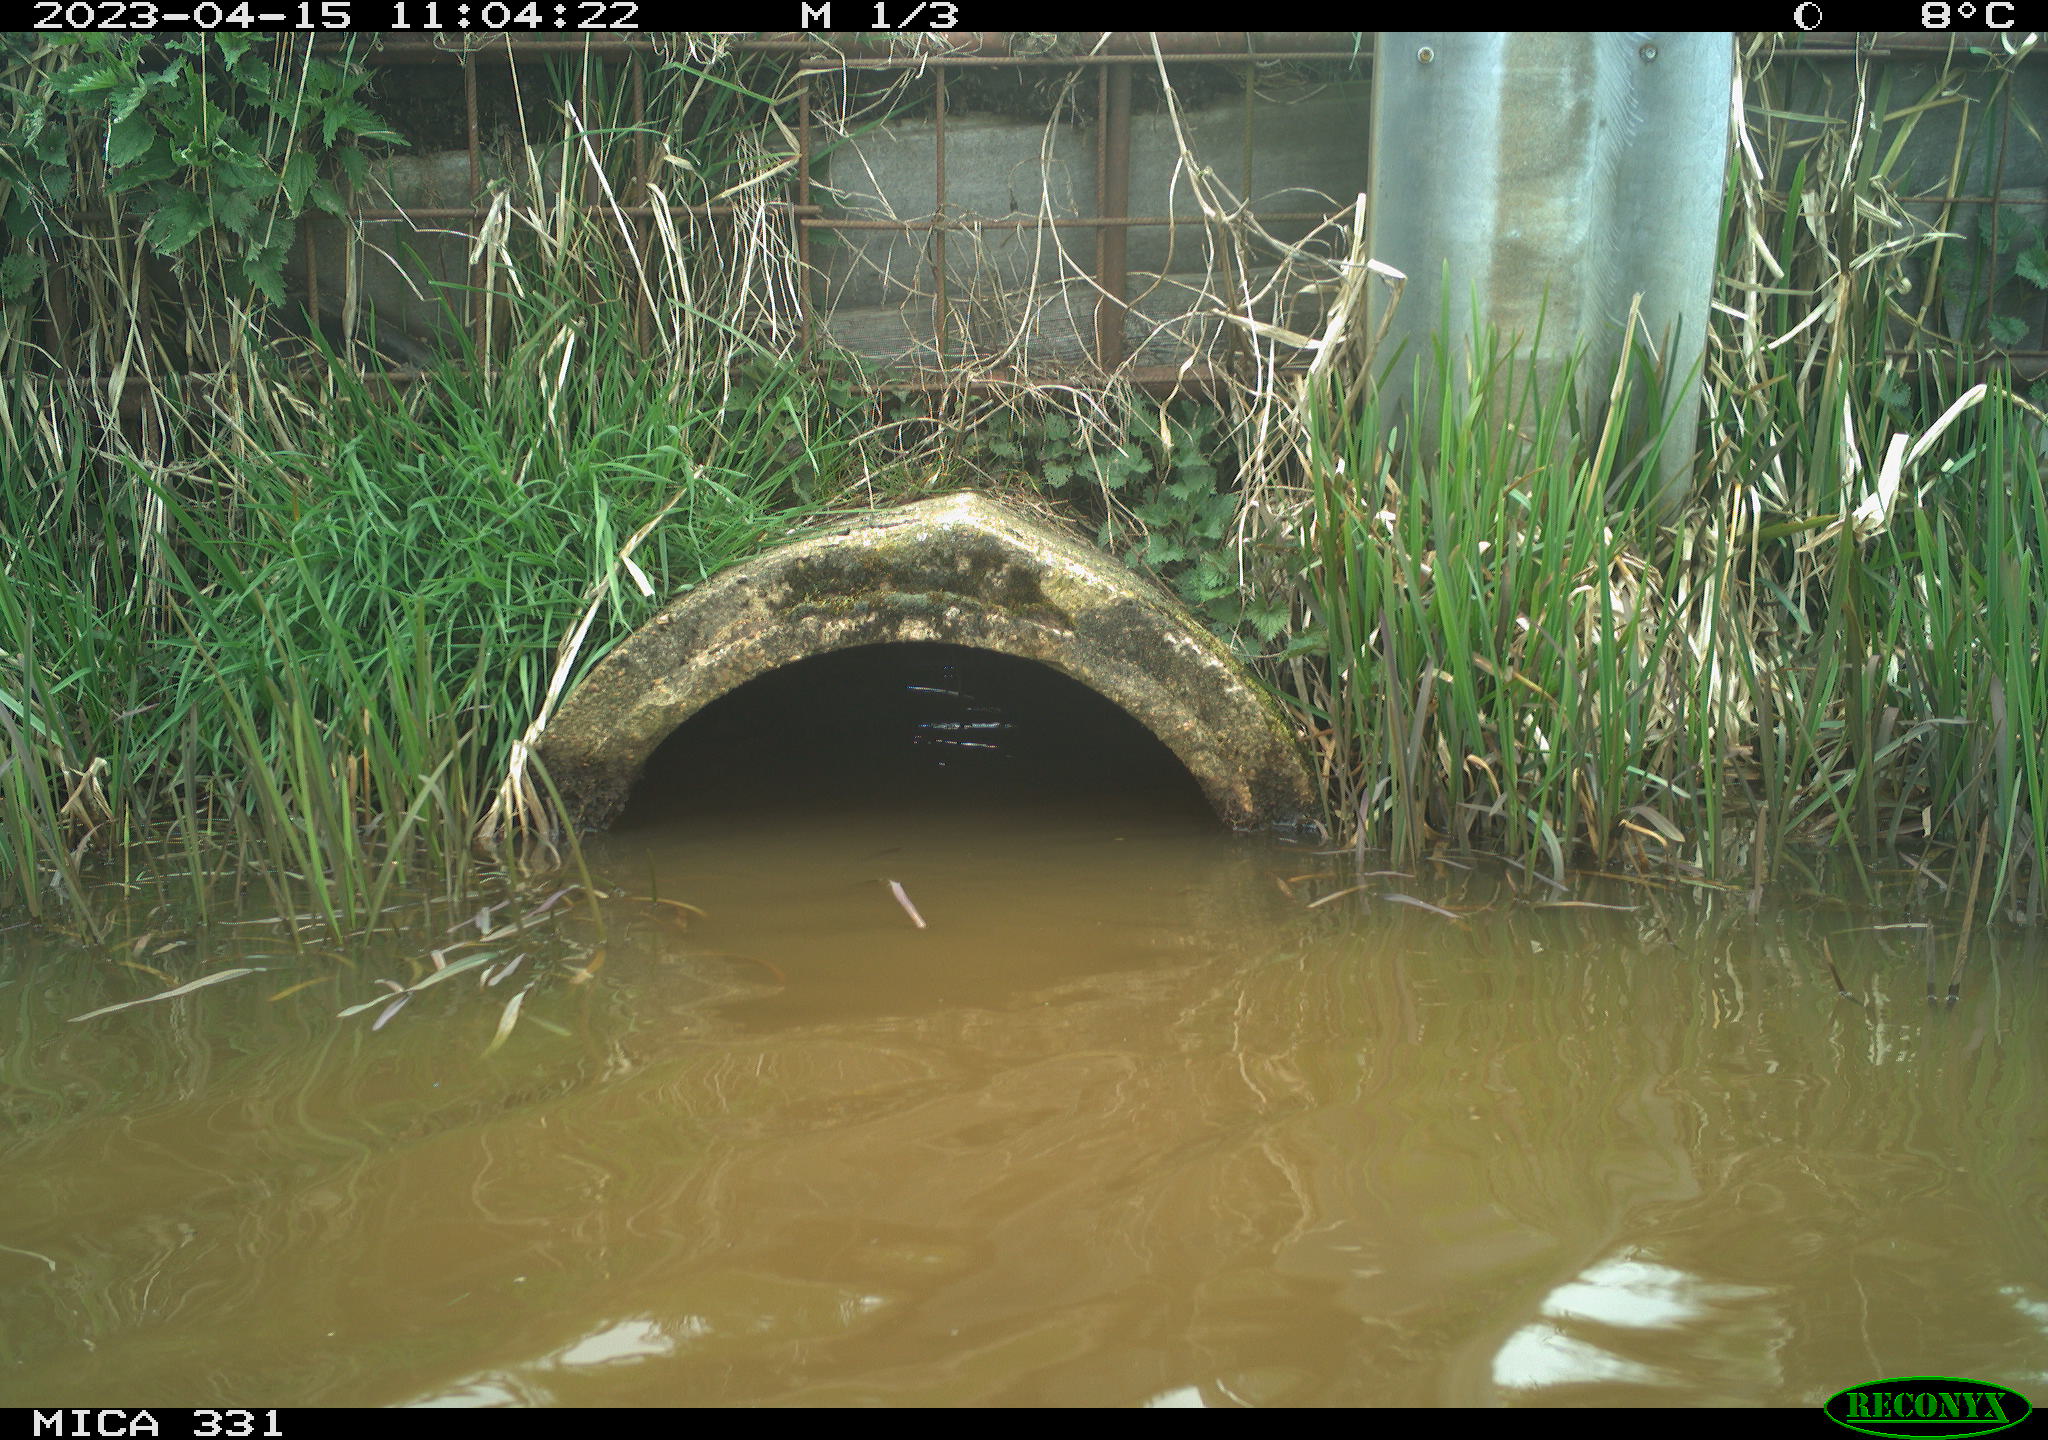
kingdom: Animalia
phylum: Chordata
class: Aves
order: Gruiformes
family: Rallidae
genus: Fulica
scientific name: Fulica atra
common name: Eurasian coot
